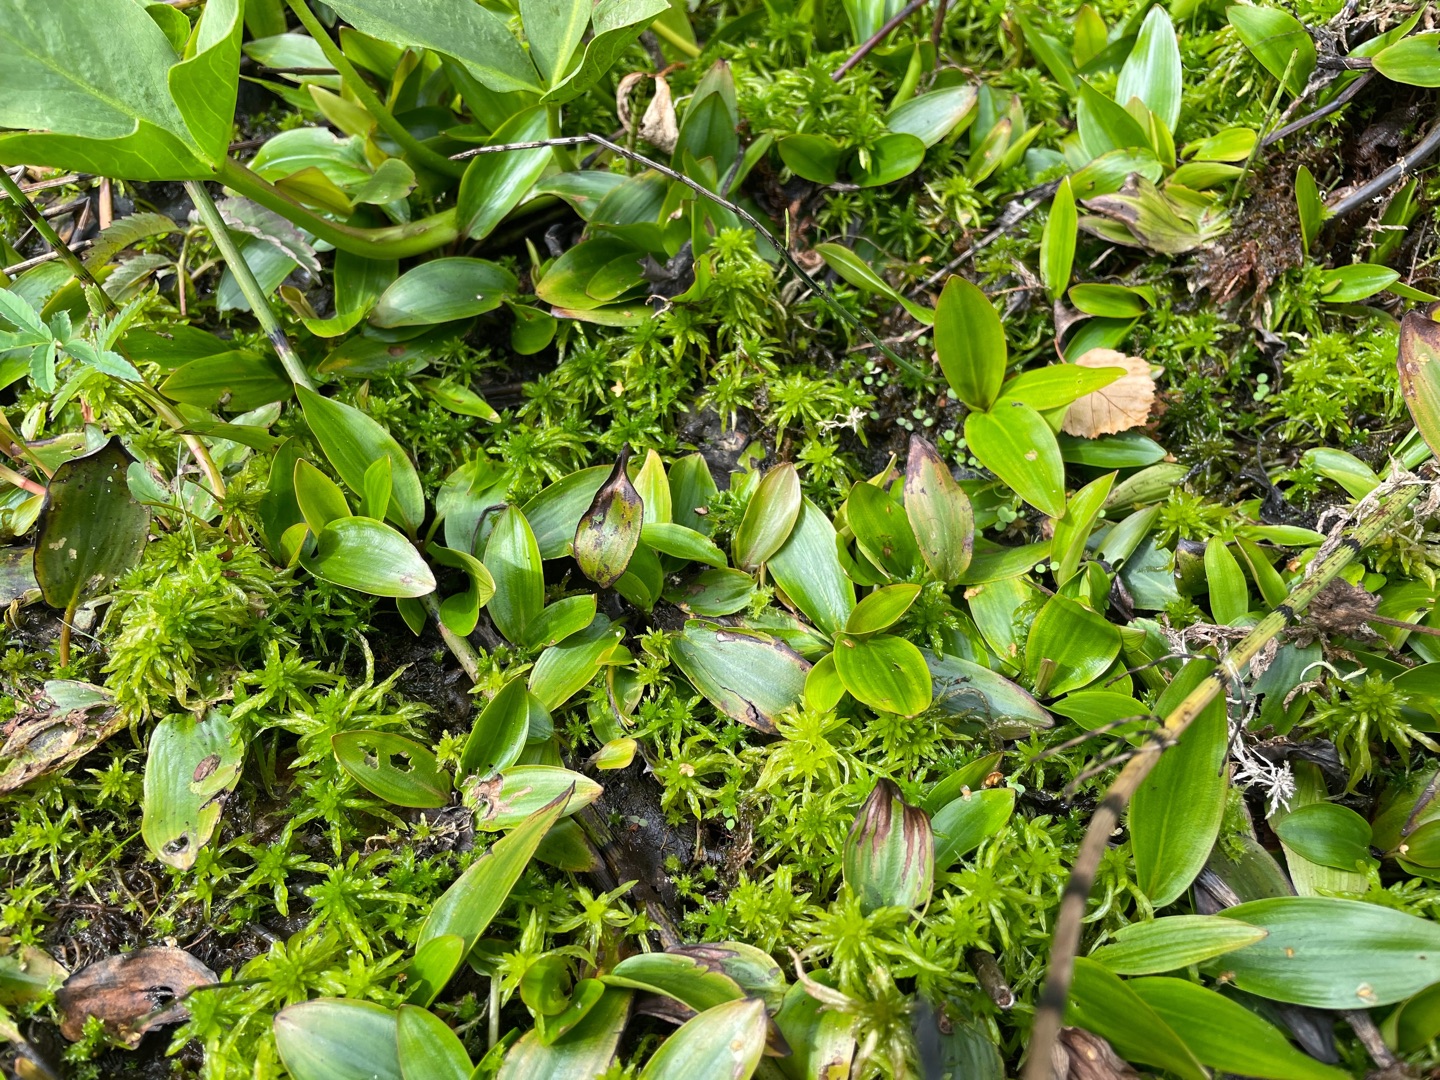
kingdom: Plantae
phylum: Tracheophyta
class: Liliopsida
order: Alismatales
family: Potamogetonaceae
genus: Potamogeton
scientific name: Potamogeton polygonifolius
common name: Aflangbladet vandaks
